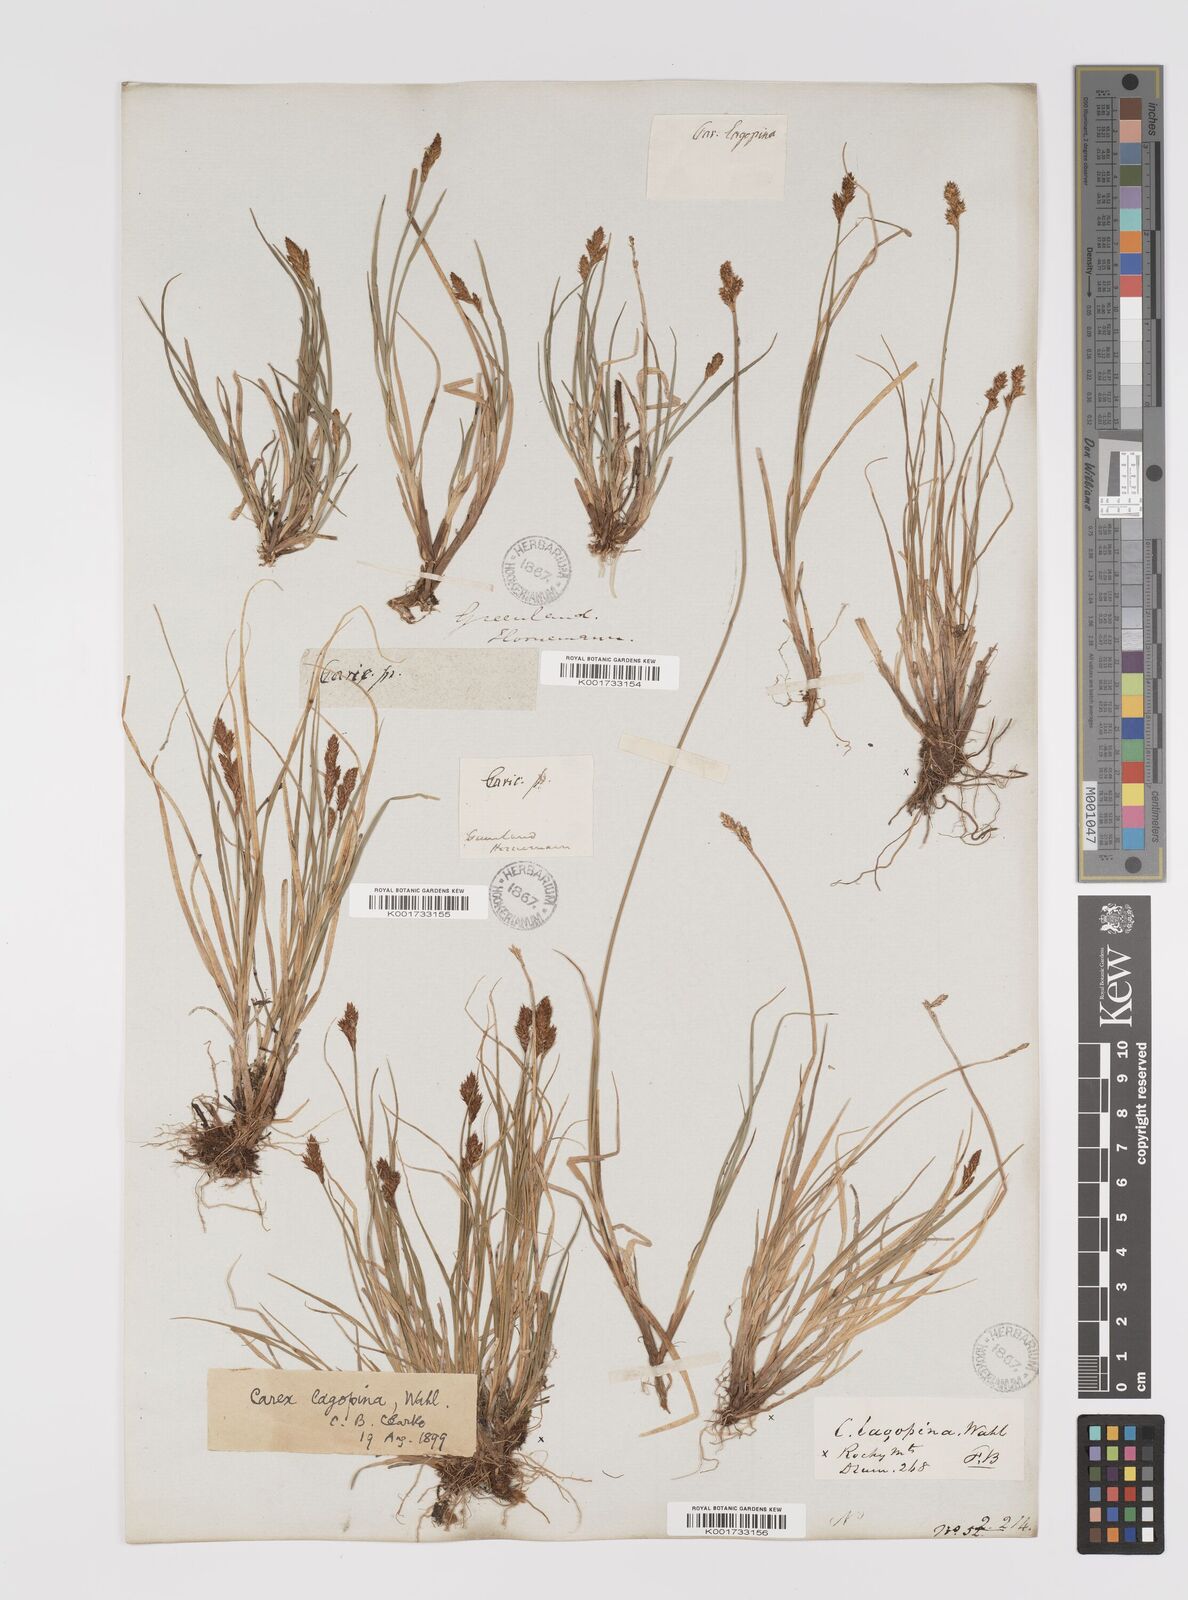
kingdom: Plantae
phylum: Tracheophyta
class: Liliopsida
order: Poales
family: Cyperaceae
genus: Carex
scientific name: Carex lachenalii
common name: Hare's-foot sedge
